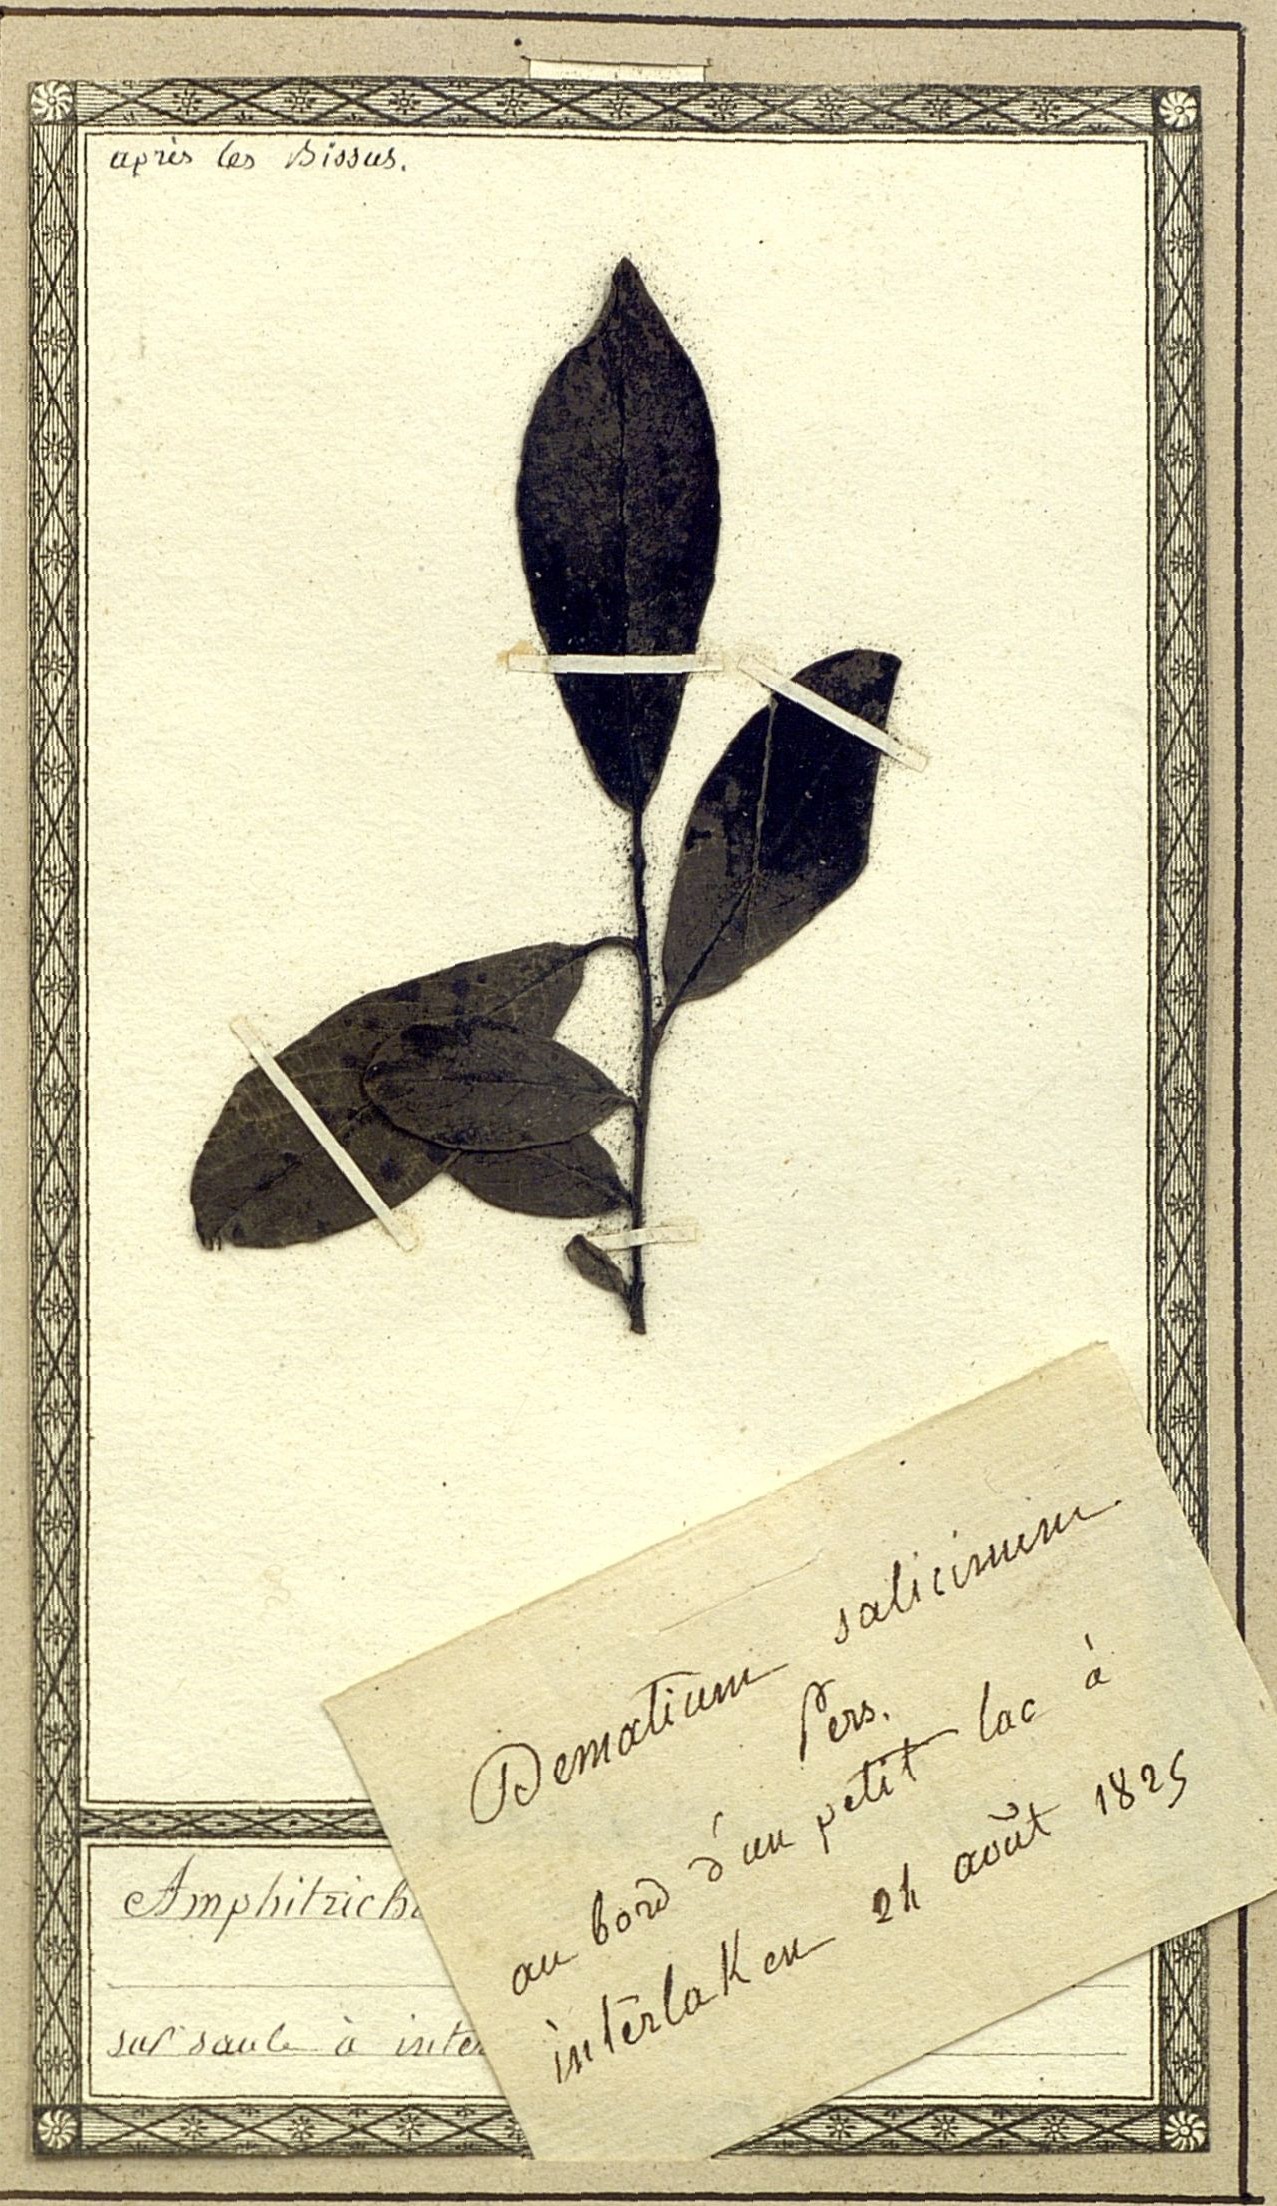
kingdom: Fungi
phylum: Ascomycota
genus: Amphitrichum
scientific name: Amphitrichum
